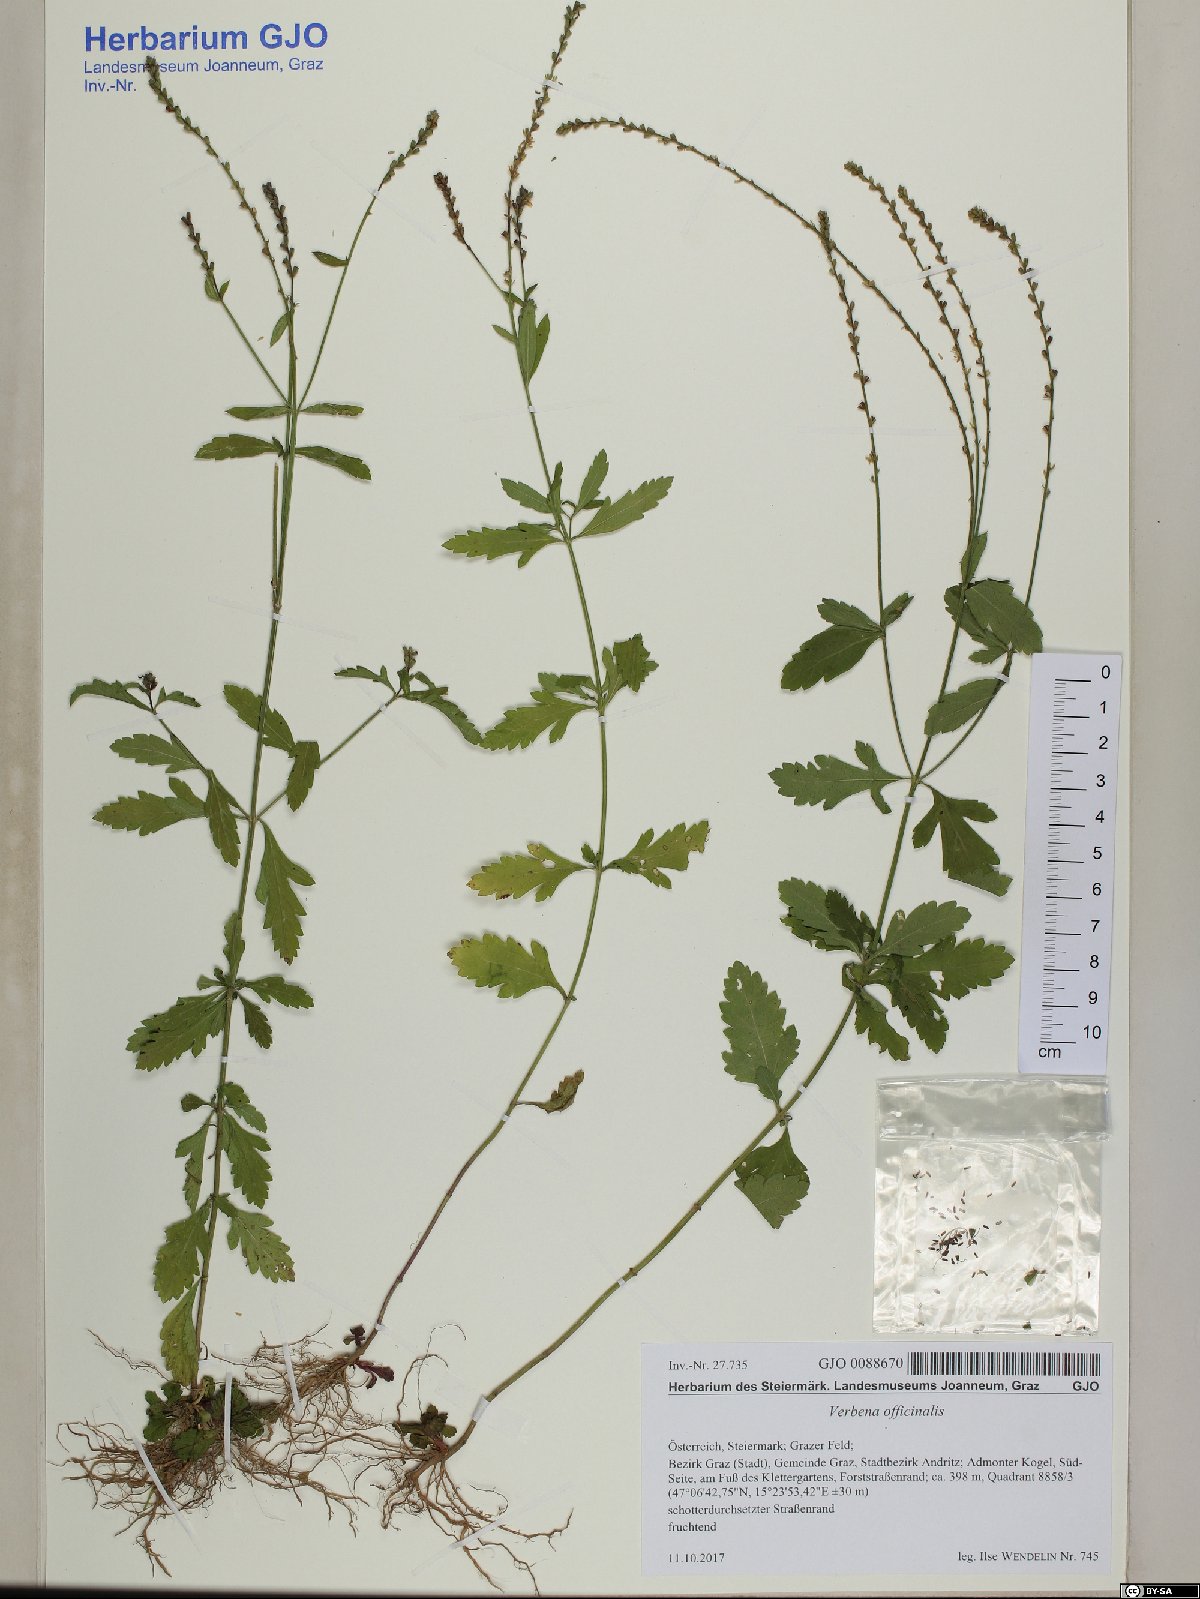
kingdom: Plantae
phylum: Tracheophyta
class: Magnoliopsida
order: Lamiales
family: Verbenaceae
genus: Verbena
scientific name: Verbena officinalis
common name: Vervain
